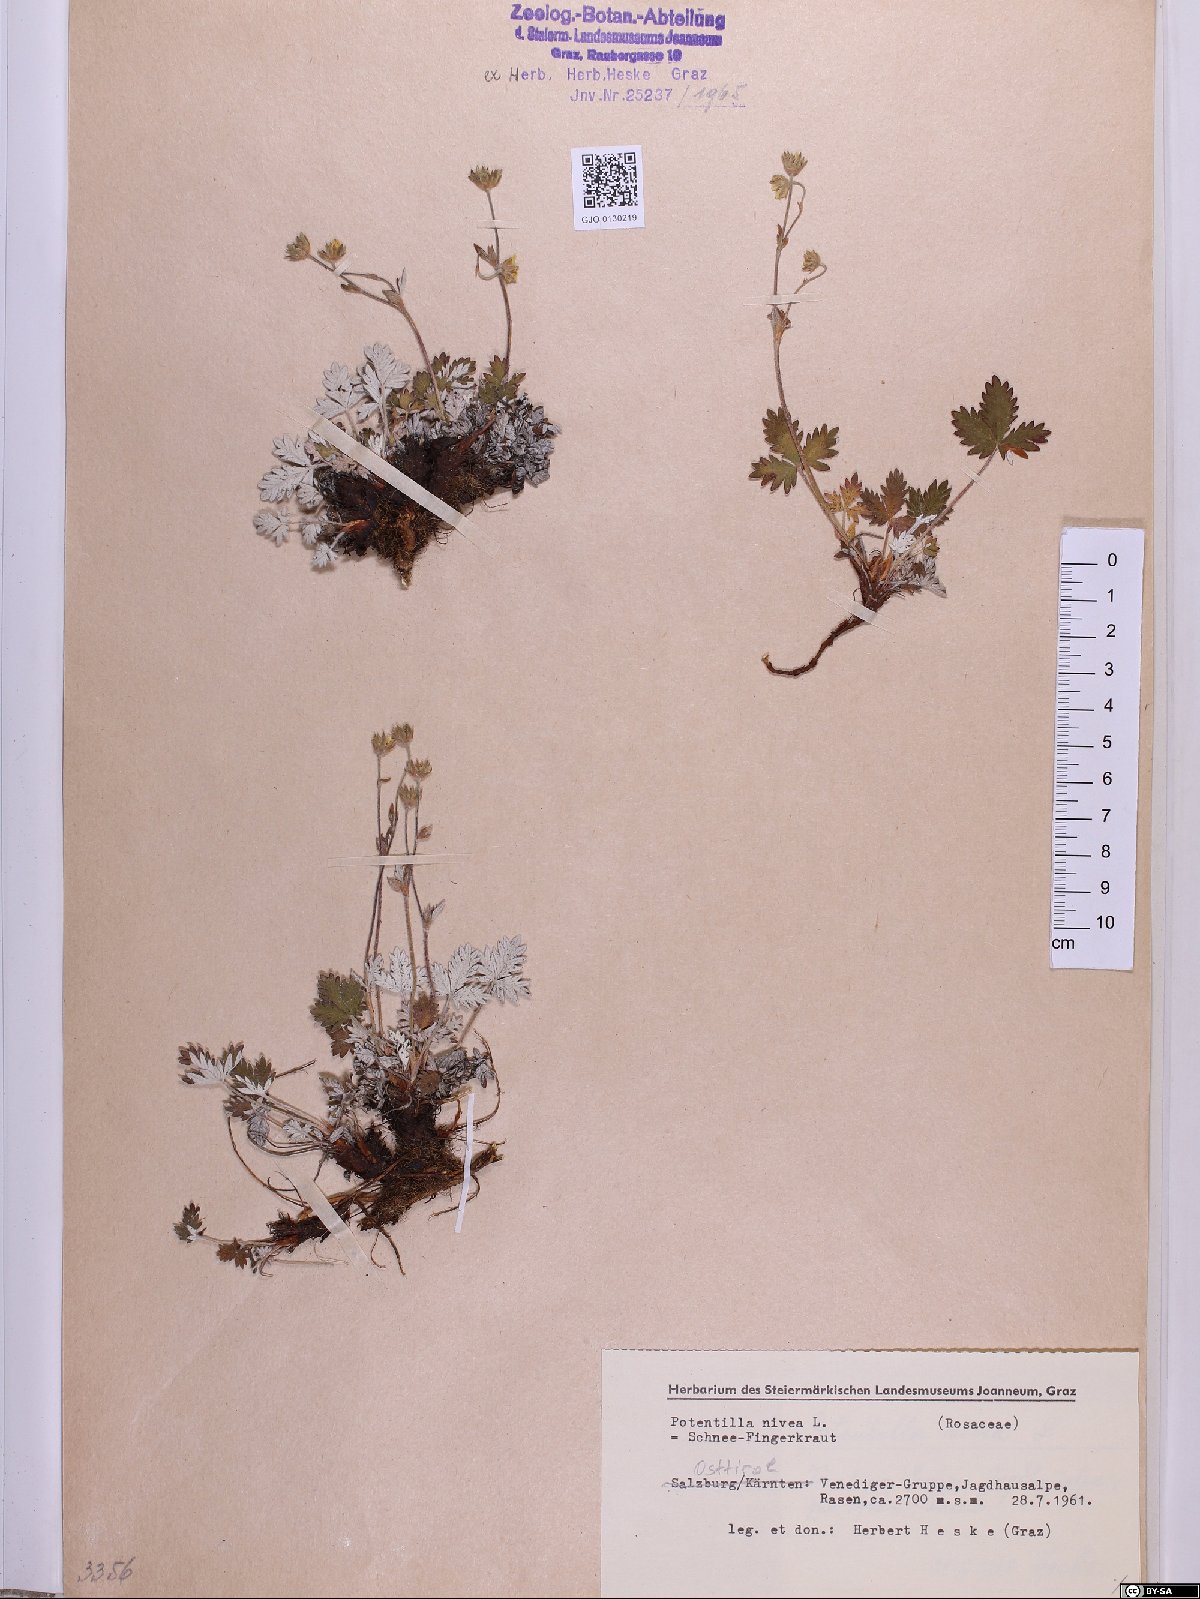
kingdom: Plantae
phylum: Tracheophyta
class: Magnoliopsida
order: Rosales
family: Rosaceae
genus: Potentilla
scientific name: Potentilla nivea
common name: Snow cinquefoil
